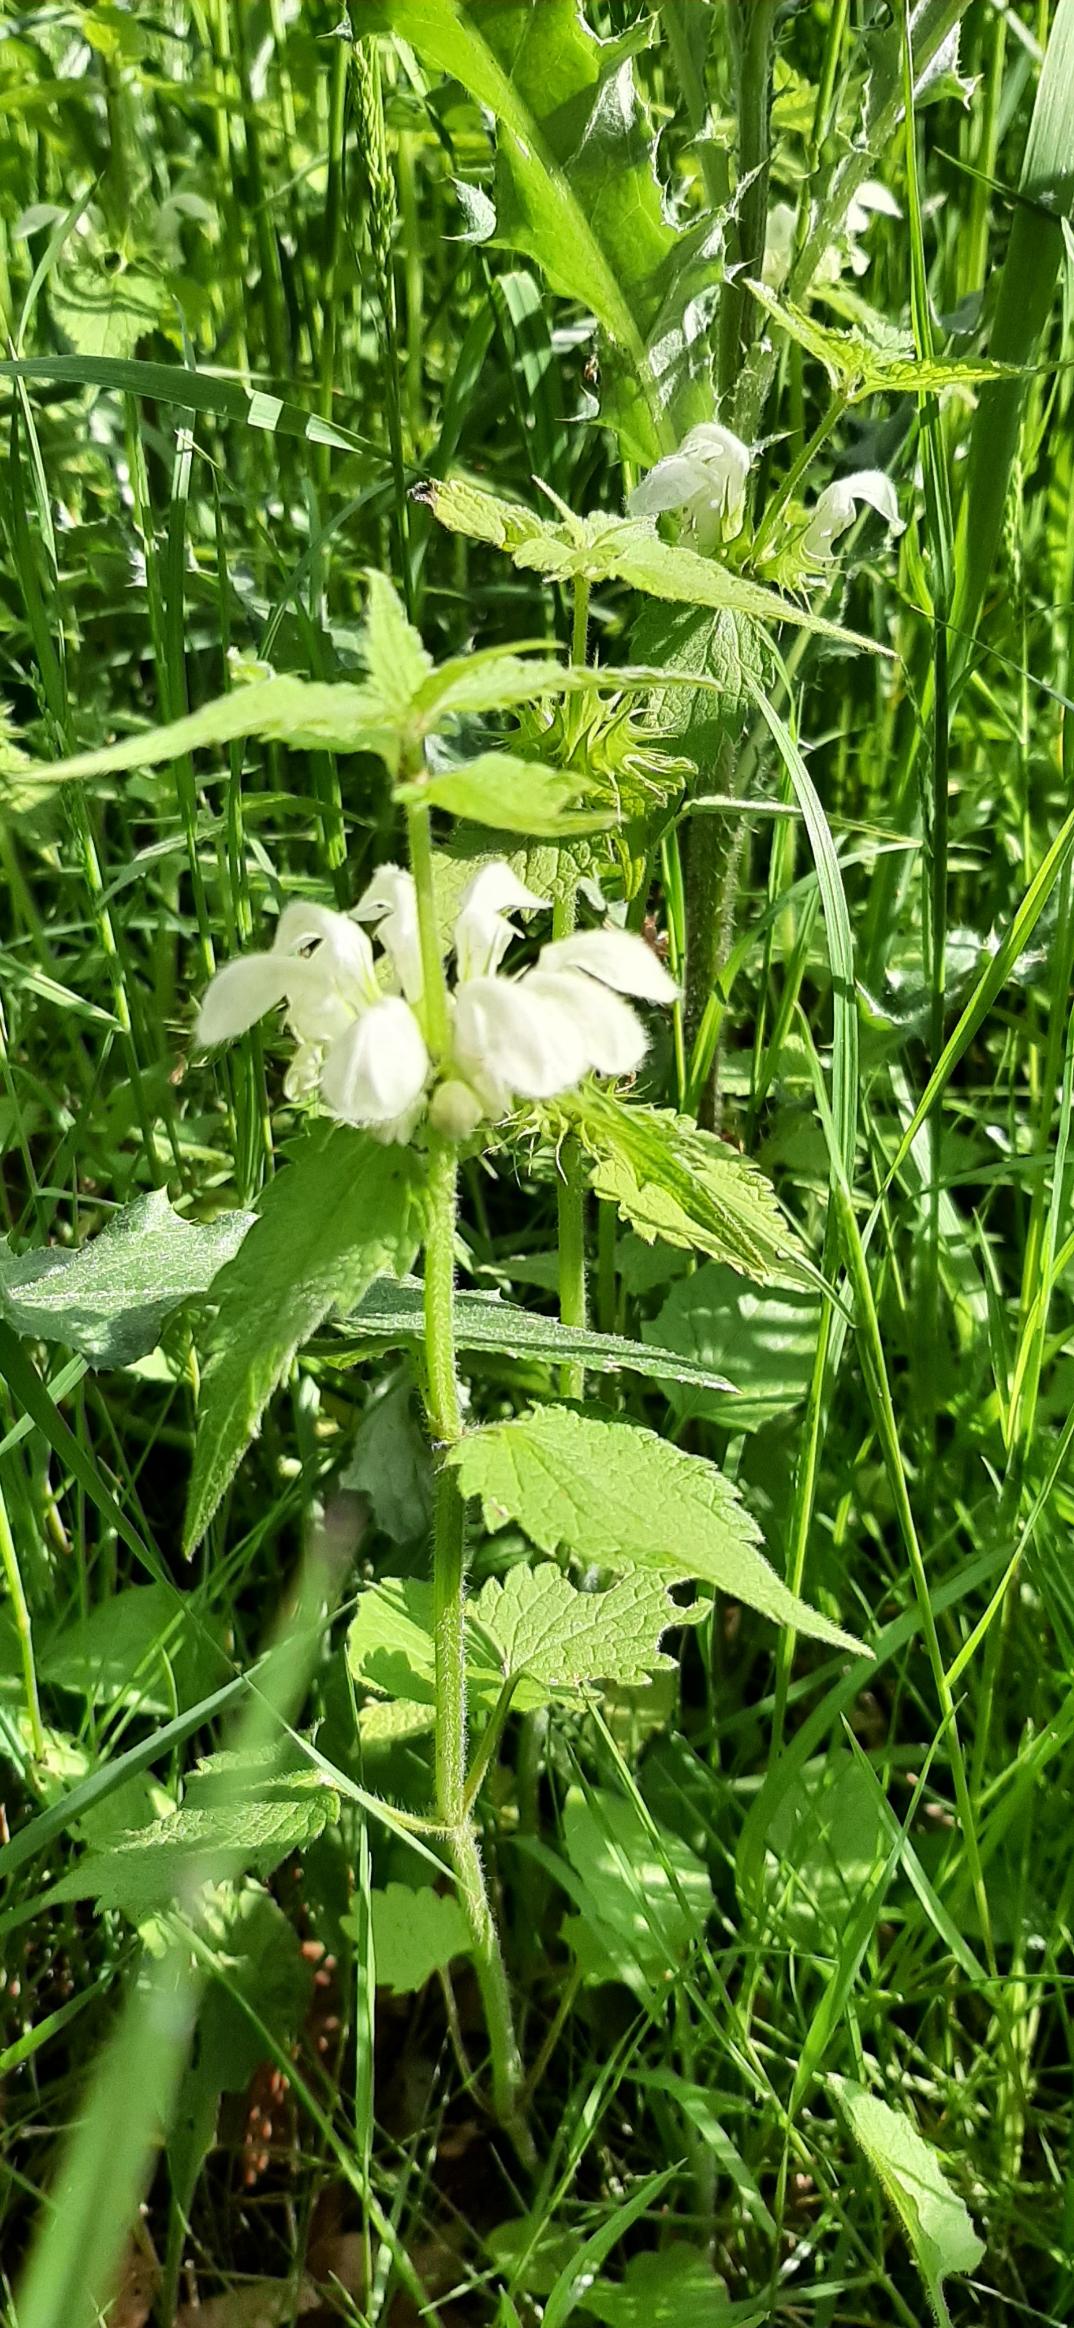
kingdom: Plantae
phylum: Tracheophyta
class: Magnoliopsida
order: Lamiales
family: Lamiaceae
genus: Lamium
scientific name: Lamium album
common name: Døvnælde
